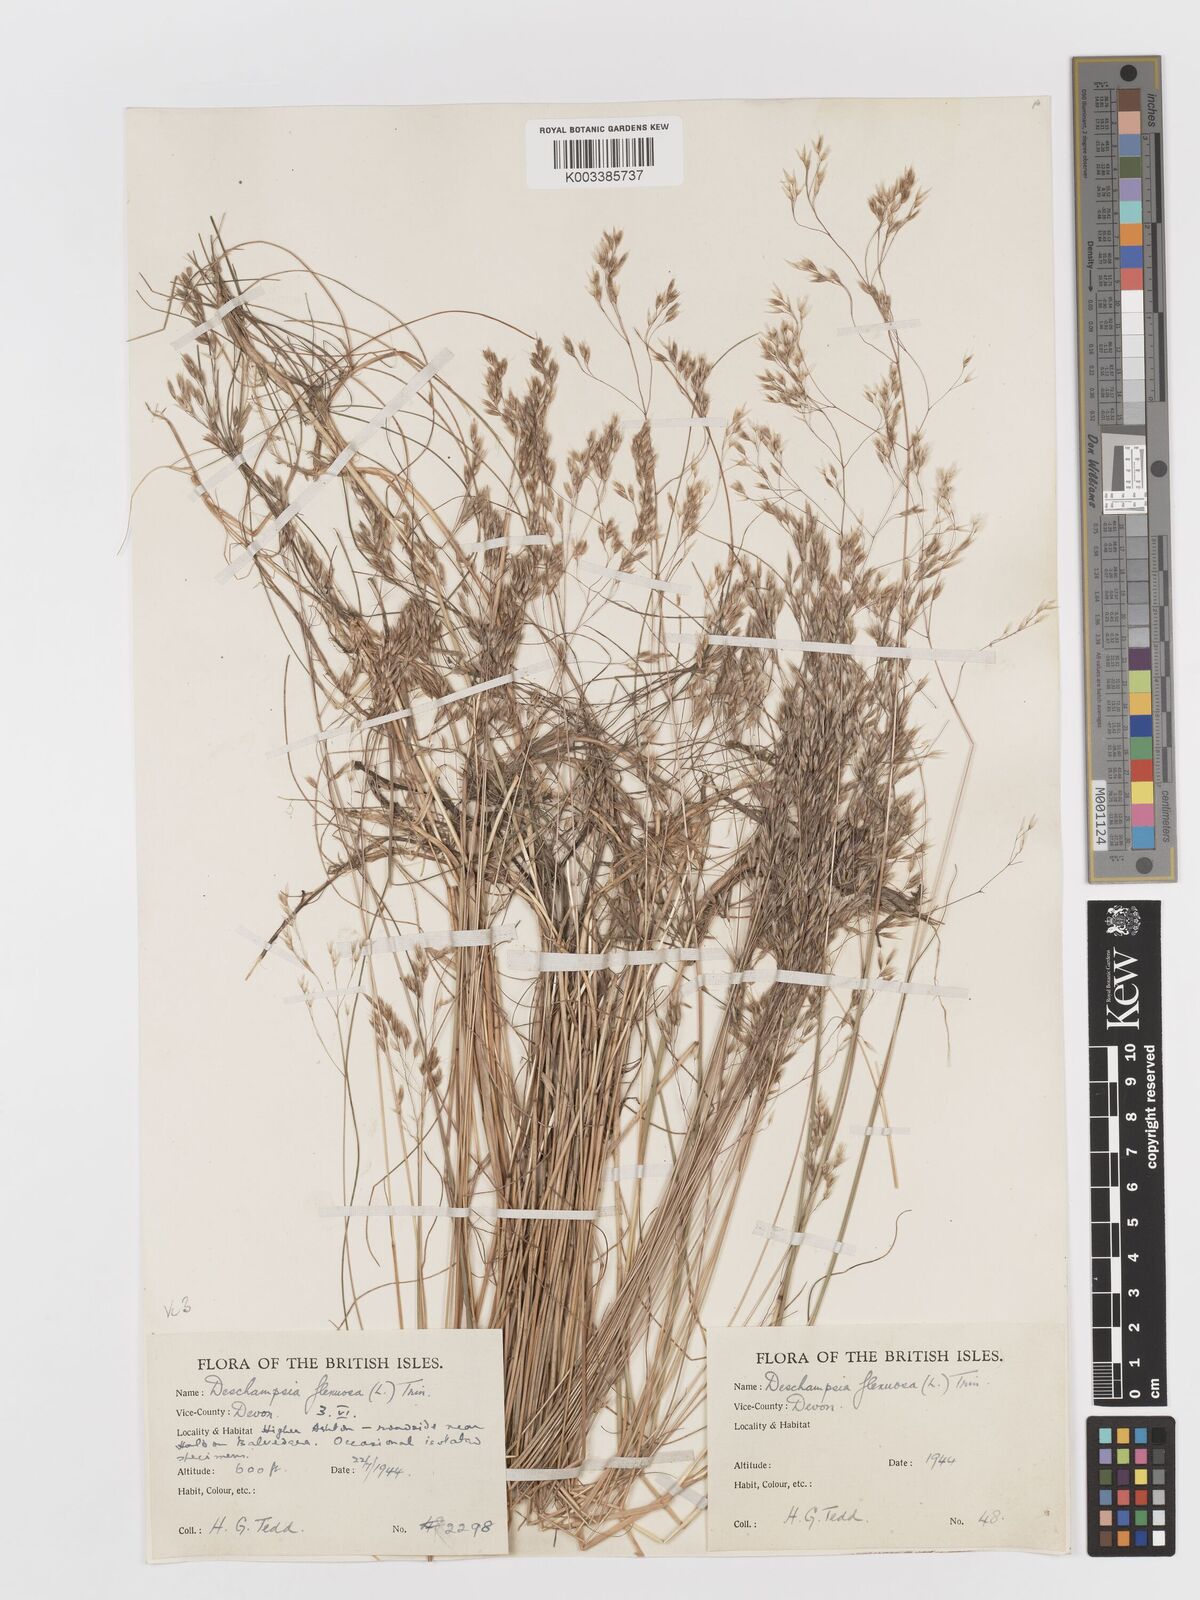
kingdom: Plantae
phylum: Tracheophyta
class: Liliopsida
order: Poales
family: Poaceae
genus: Avenella
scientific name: Avenella flexuosa
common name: Wavy hairgrass
